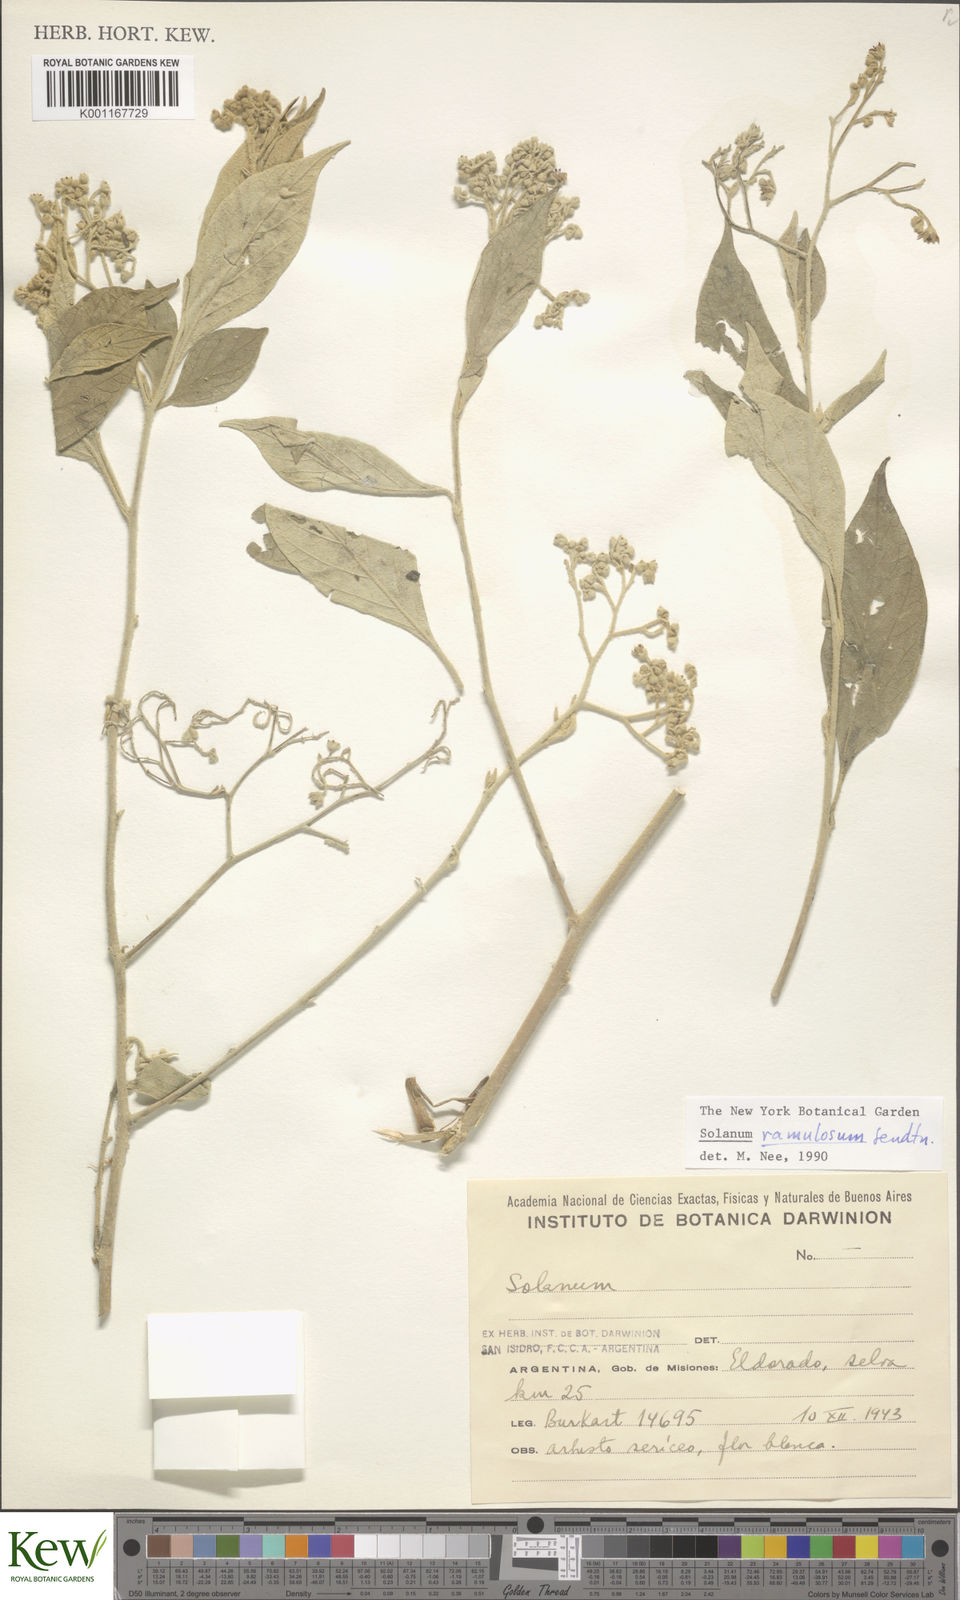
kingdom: Plantae
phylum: Tracheophyta
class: Magnoliopsida
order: Solanales
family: Solanaceae
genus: Solanum
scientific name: Solanum ramulosum
